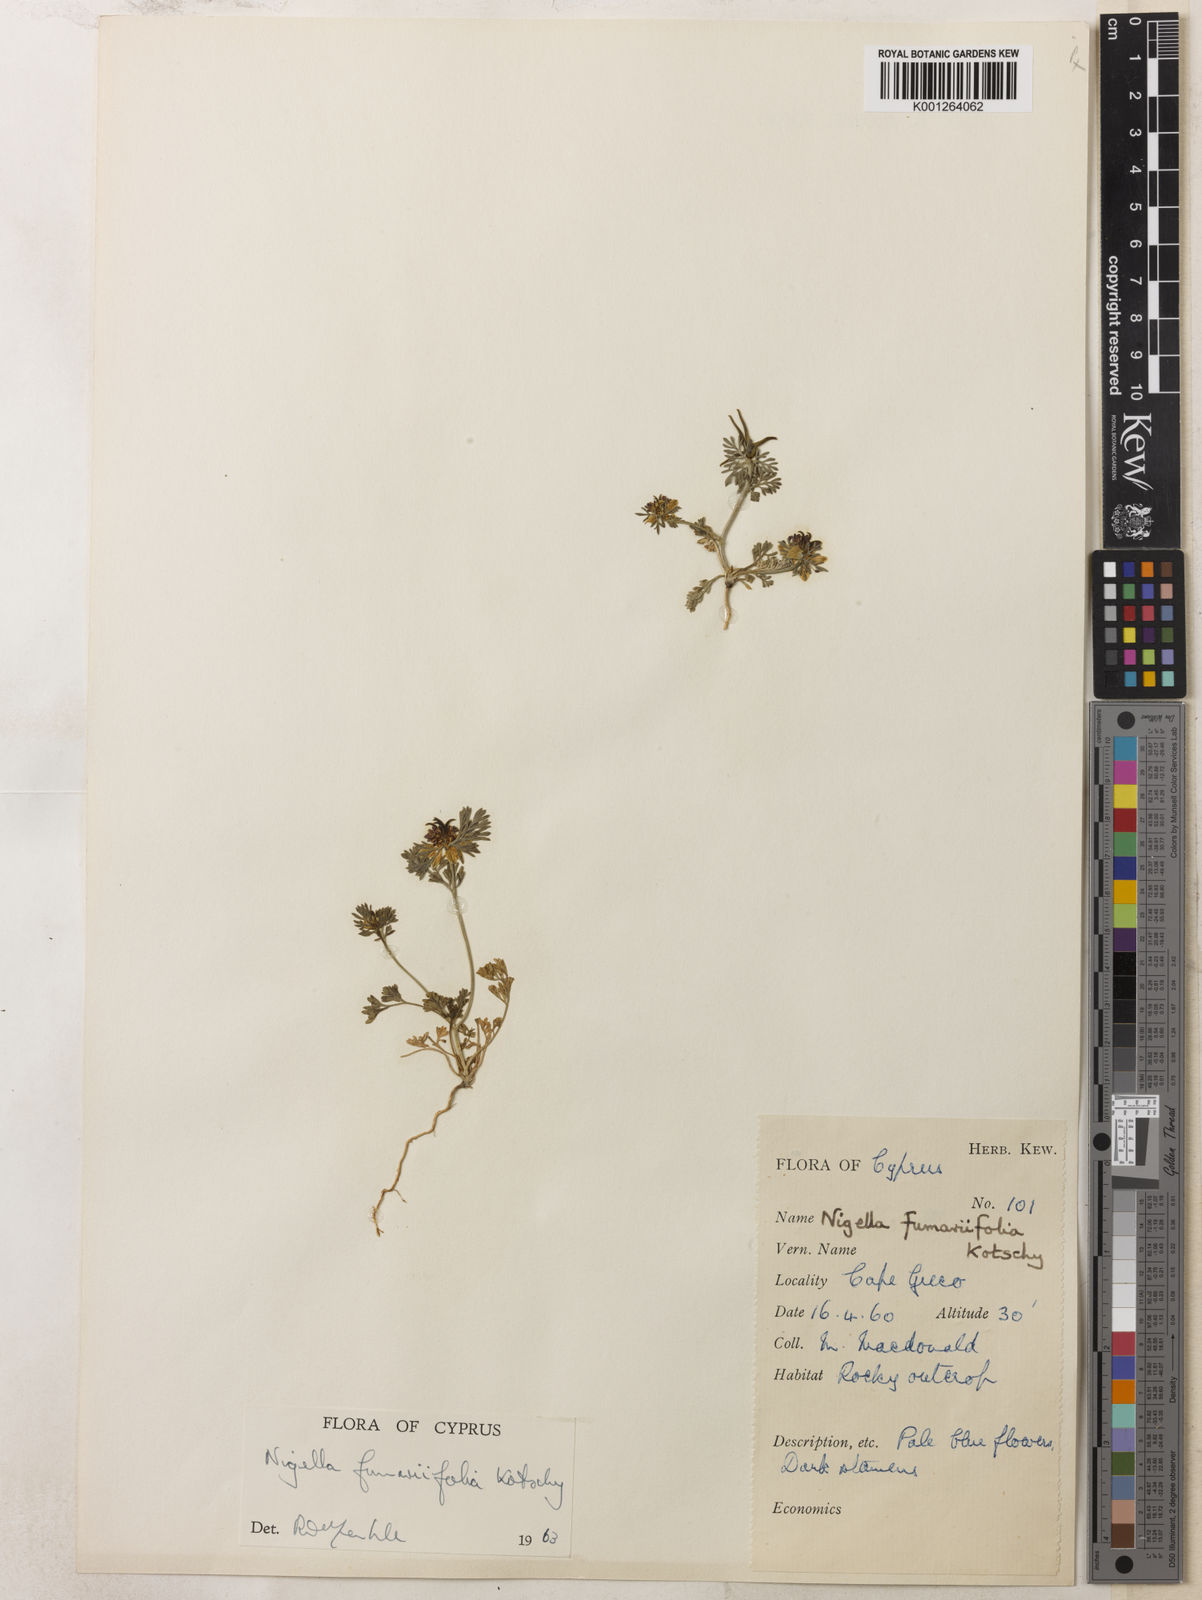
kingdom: Plantae
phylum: Tracheophyta
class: Magnoliopsida
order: Ranunculales
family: Ranunculaceae
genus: Nigella
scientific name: Nigella
